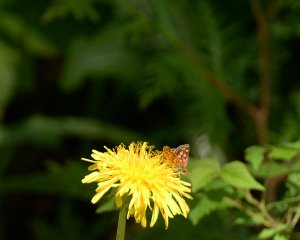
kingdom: Animalia
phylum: Arthropoda
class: Insecta
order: Lepidoptera
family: Hesperiidae
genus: Carterocephalus
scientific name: Carterocephalus palaemon
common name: Chequered Skipper
